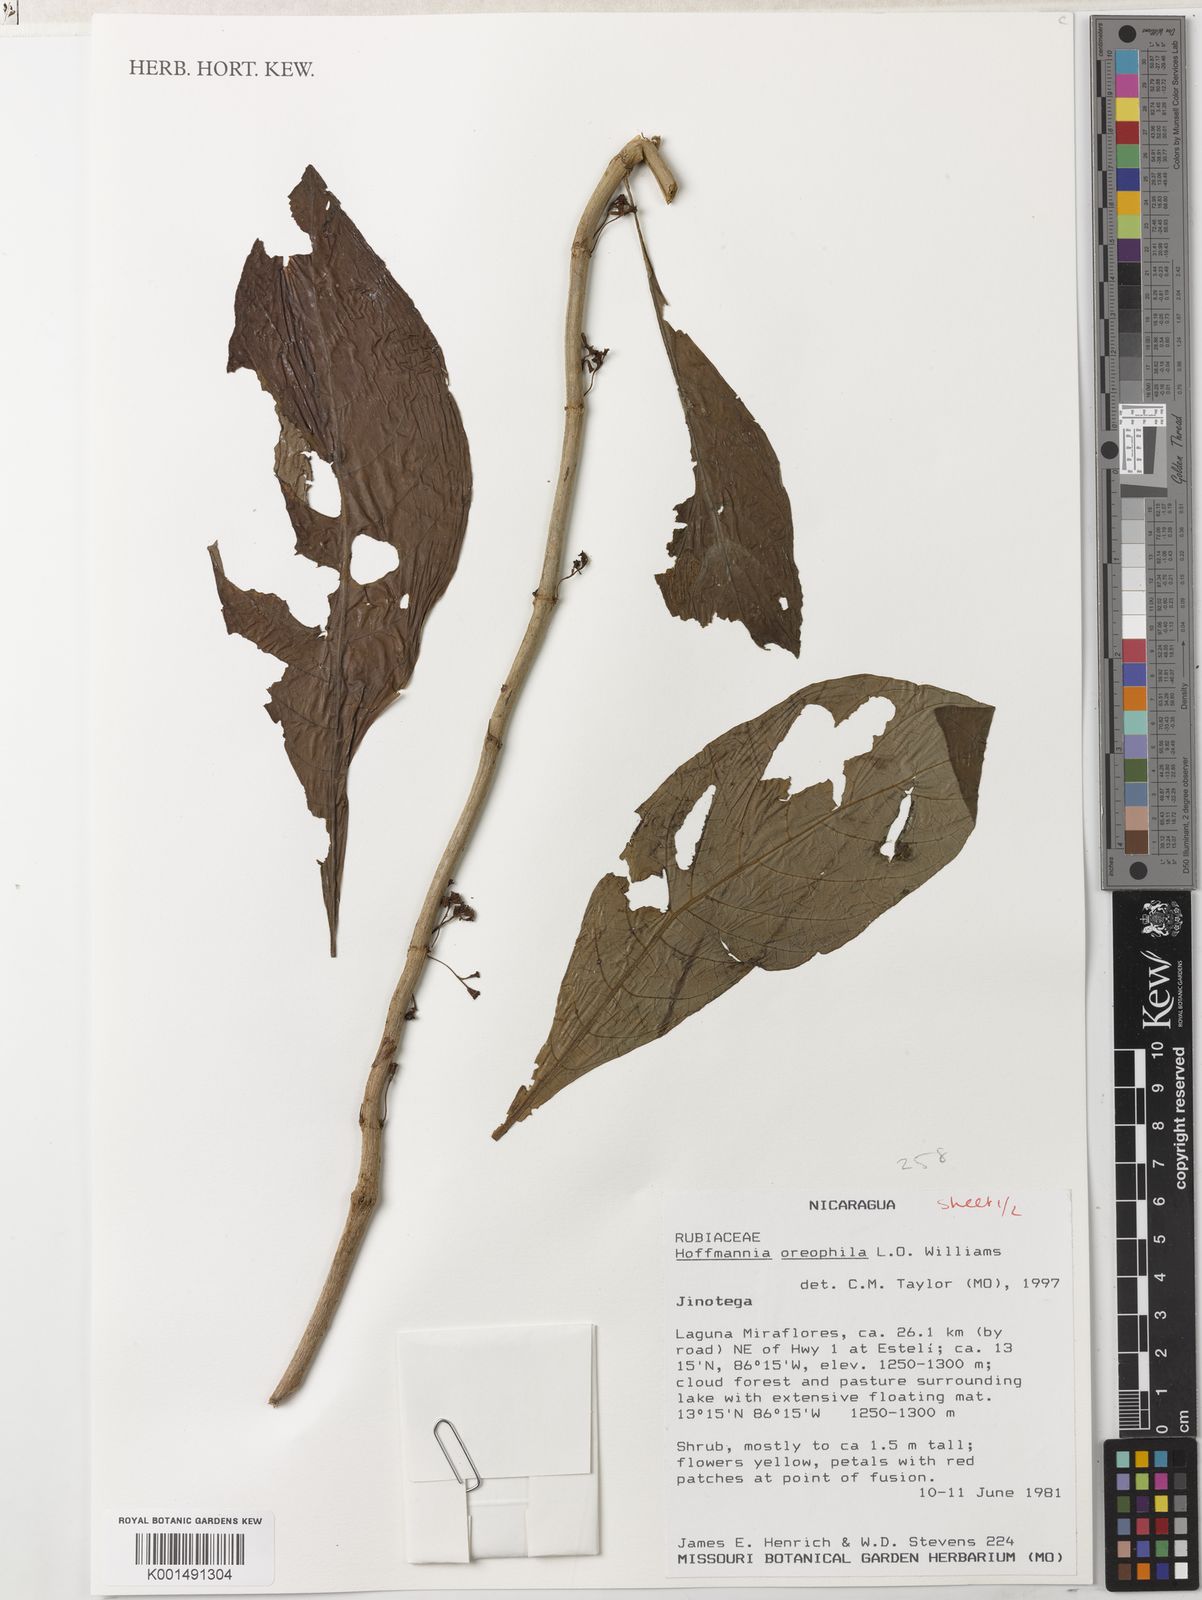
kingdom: Plantae
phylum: Tracheophyta
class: Magnoliopsida
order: Gentianales
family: Rubiaceae
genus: Hoffmannia
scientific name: Hoffmannia psychotriifolia
